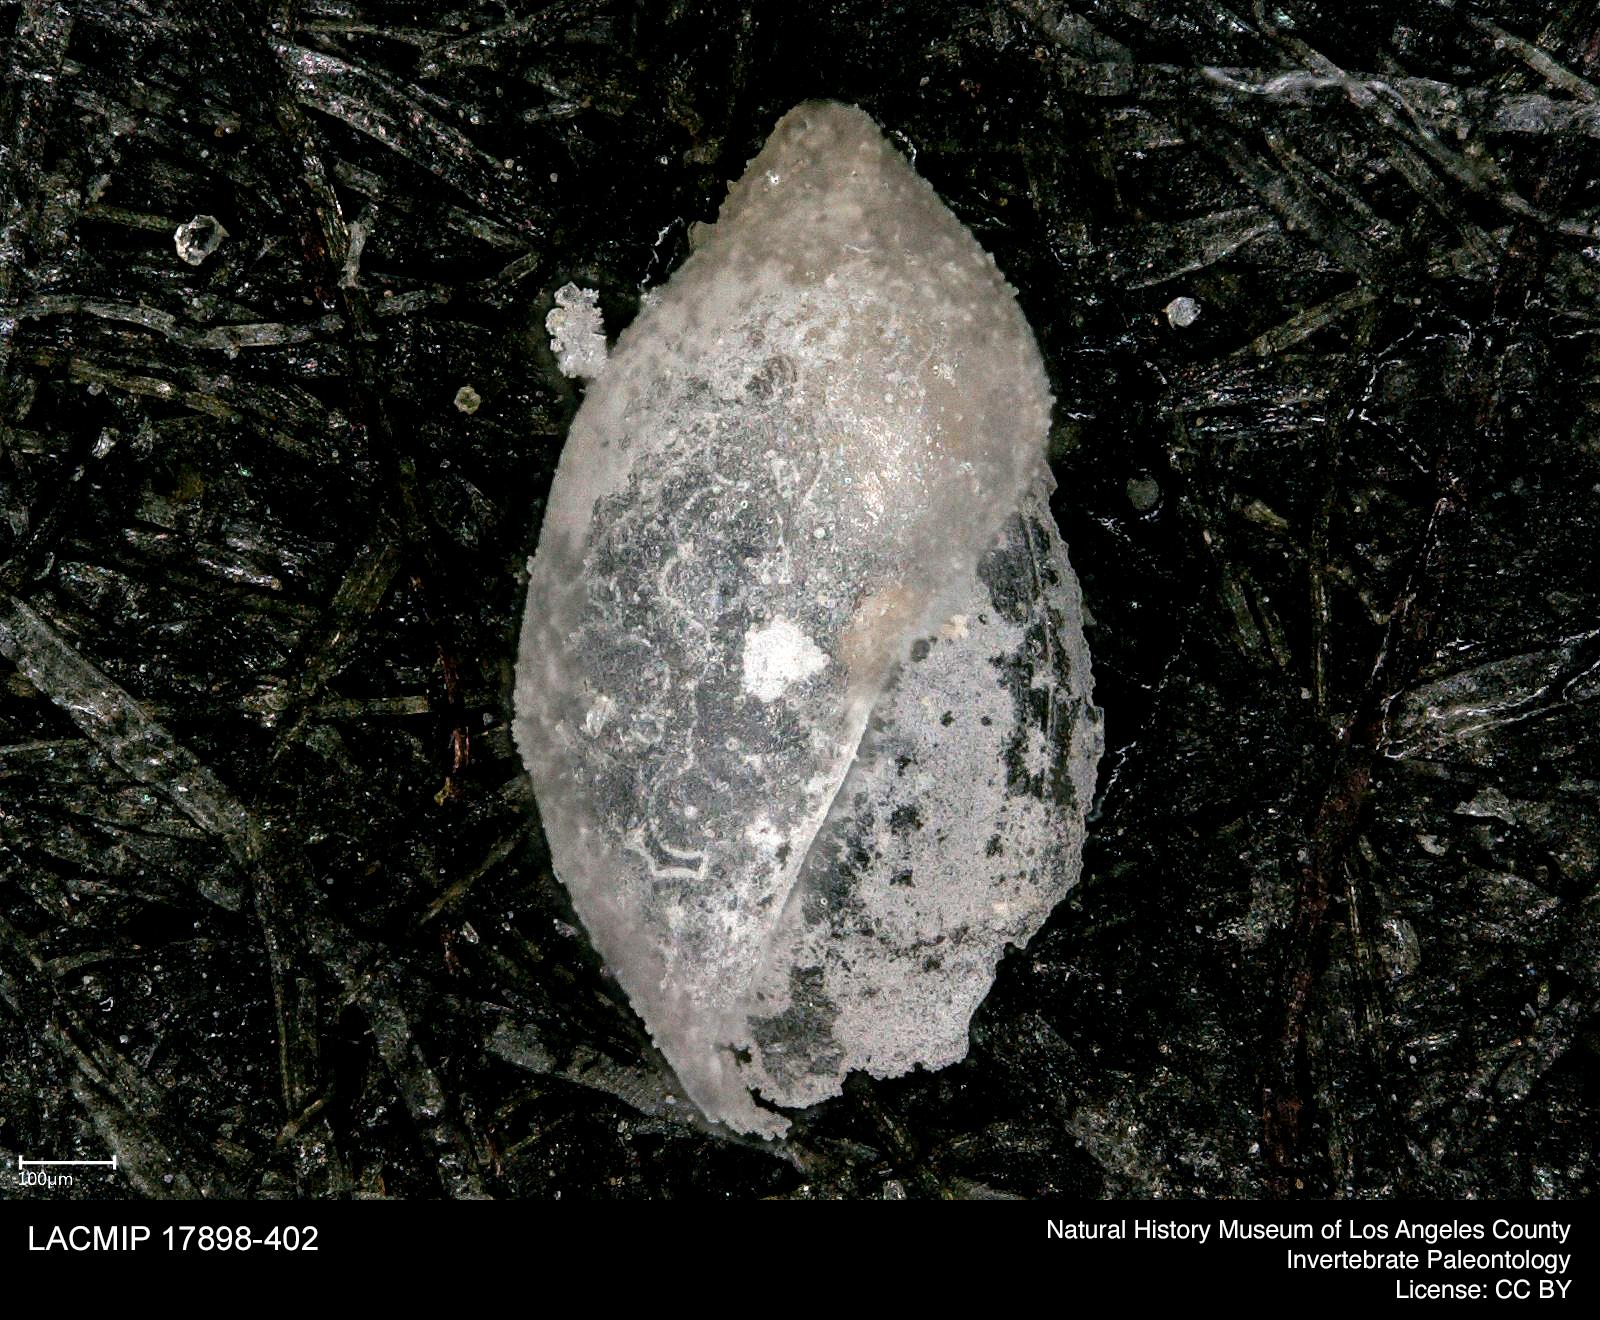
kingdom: Animalia
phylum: Mollusca
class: Gastropoda
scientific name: Gastropoda
